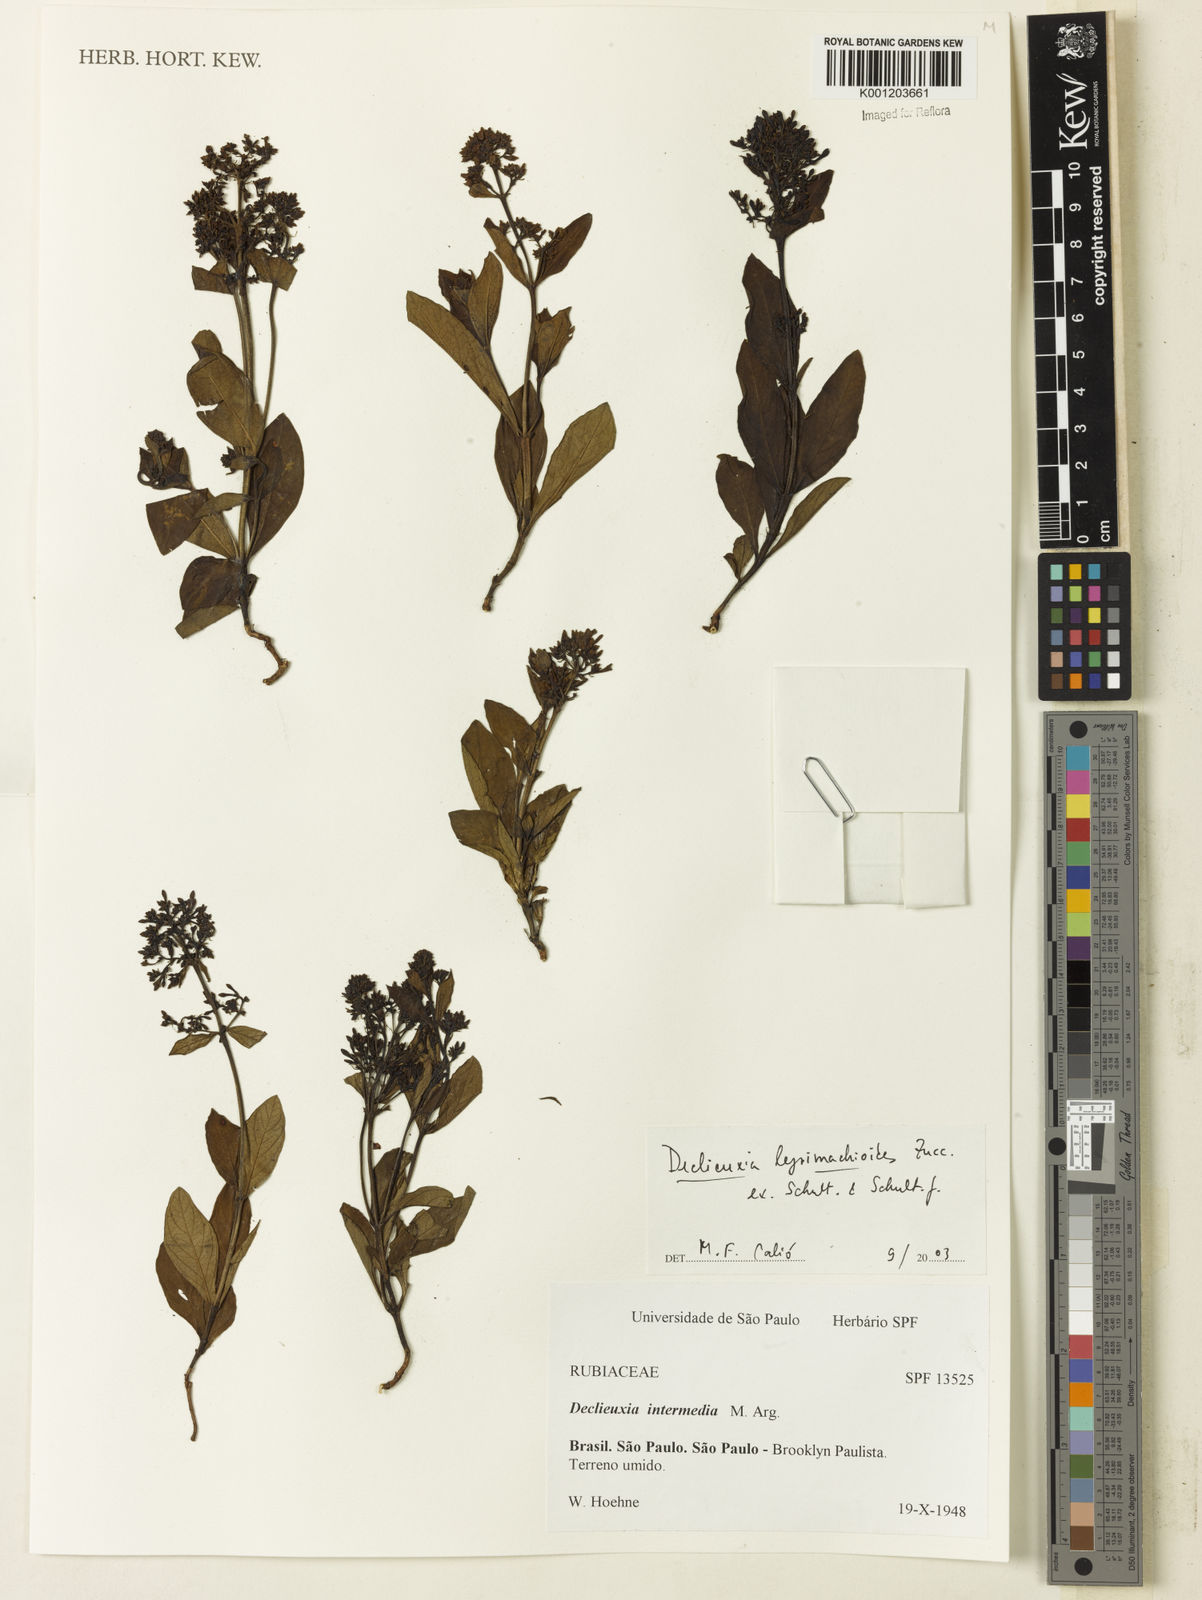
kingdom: Plantae
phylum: Tracheophyta
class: Magnoliopsida
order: Gentianales
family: Rubiaceae
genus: Declieuxia
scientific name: Declieuxia
